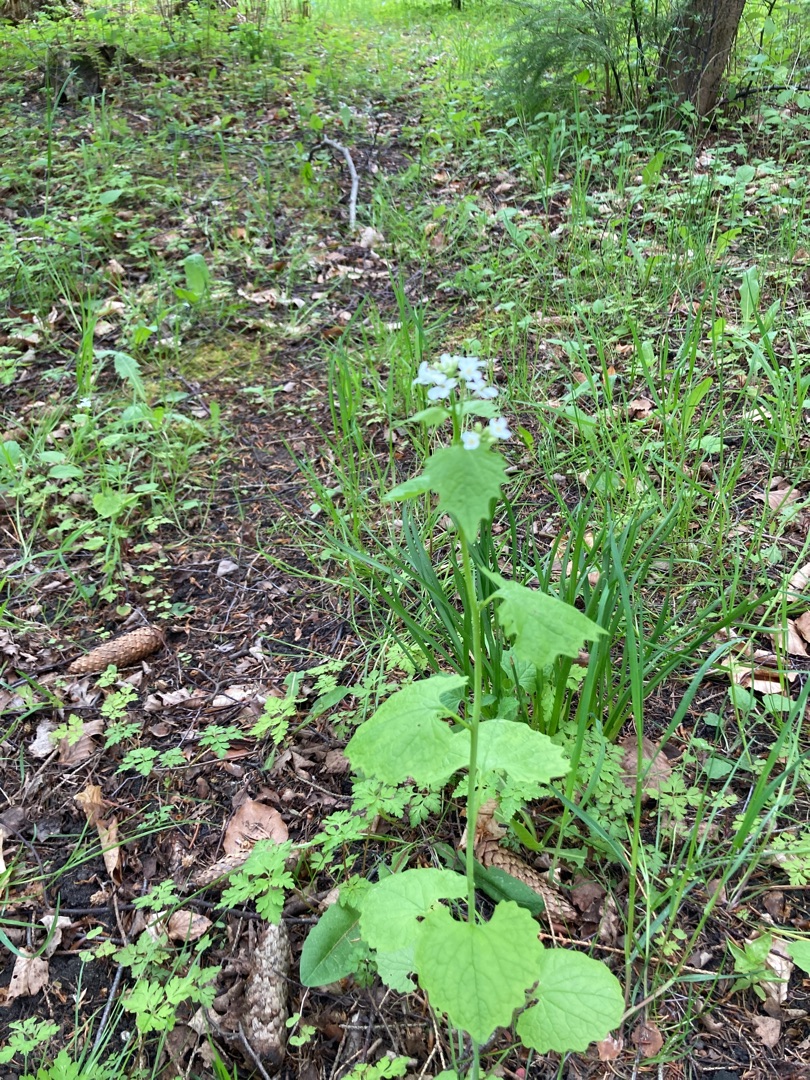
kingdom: Plantae
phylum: Tracheophyta
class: Magnoliopsida
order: Brassicales
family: Brassicaceae
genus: Alliaria
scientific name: Alliaria petiolata
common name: Løgkarse
